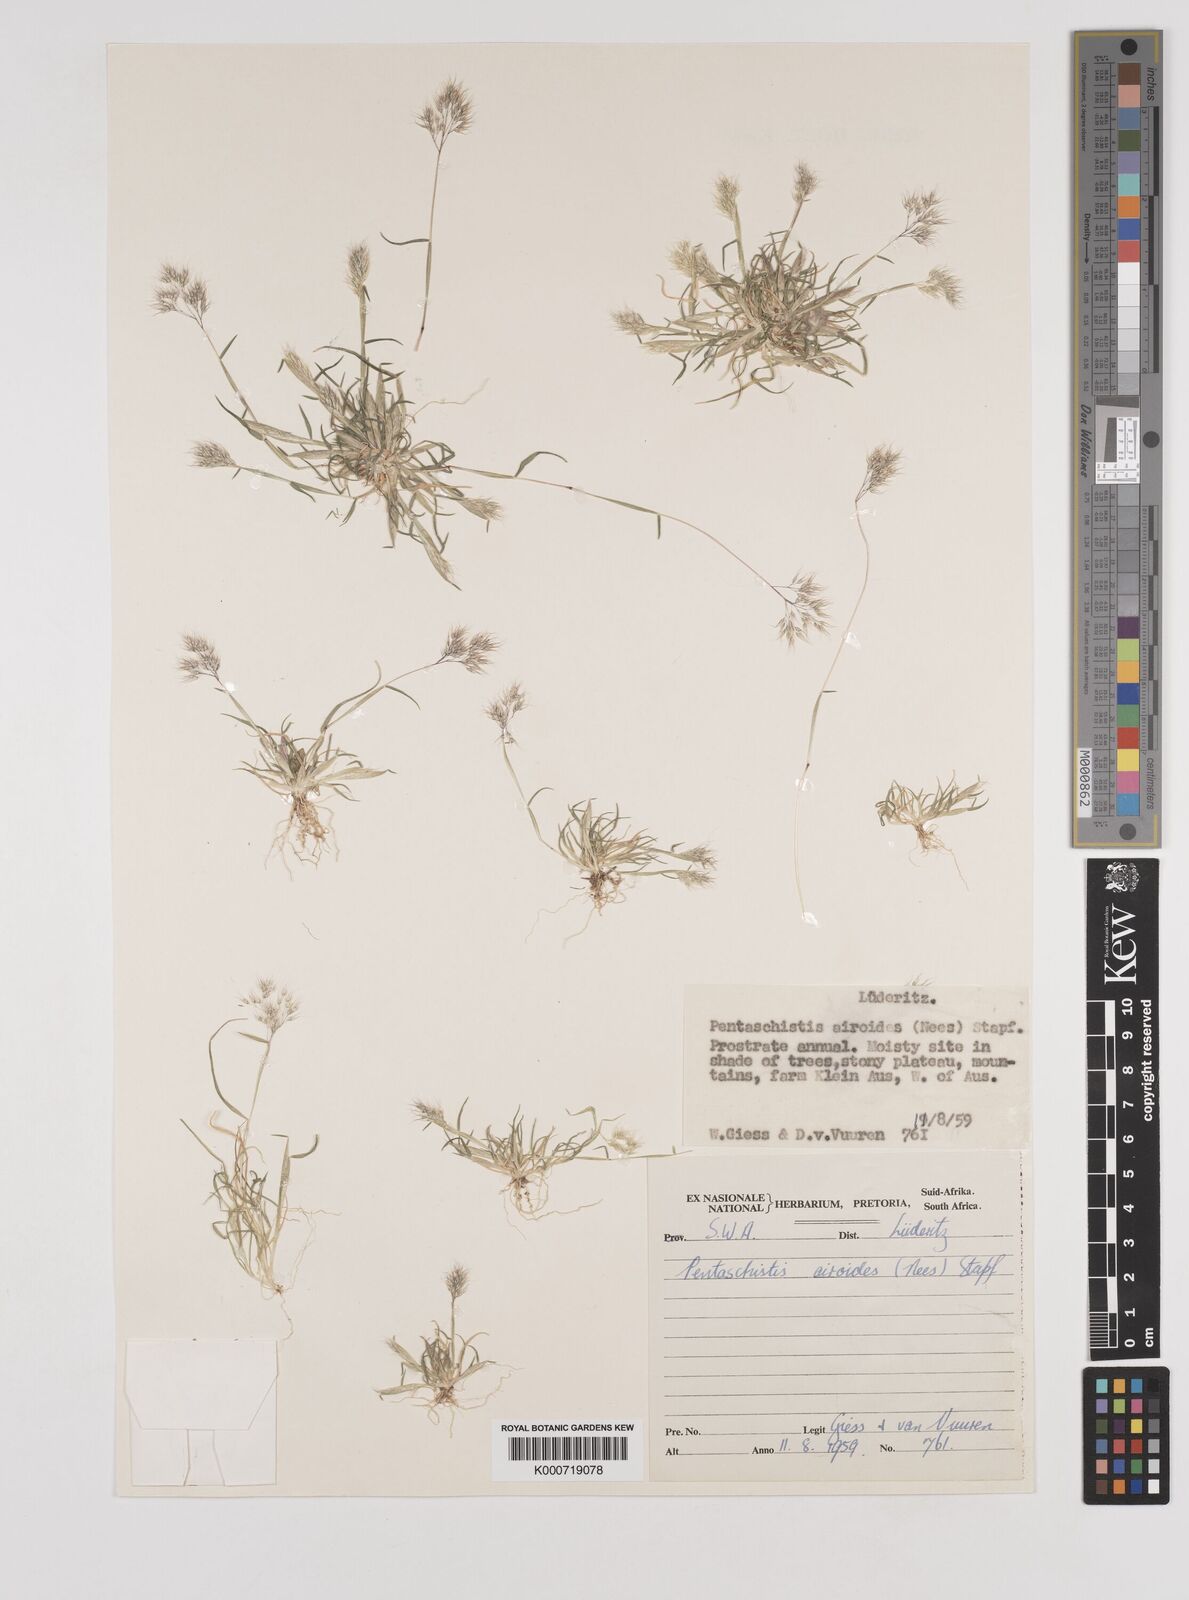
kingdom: Plantae
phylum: Tracheophyta
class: Liliopsida
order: Poales
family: Poaceae
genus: Pentameris
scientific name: Pentameris airoides
